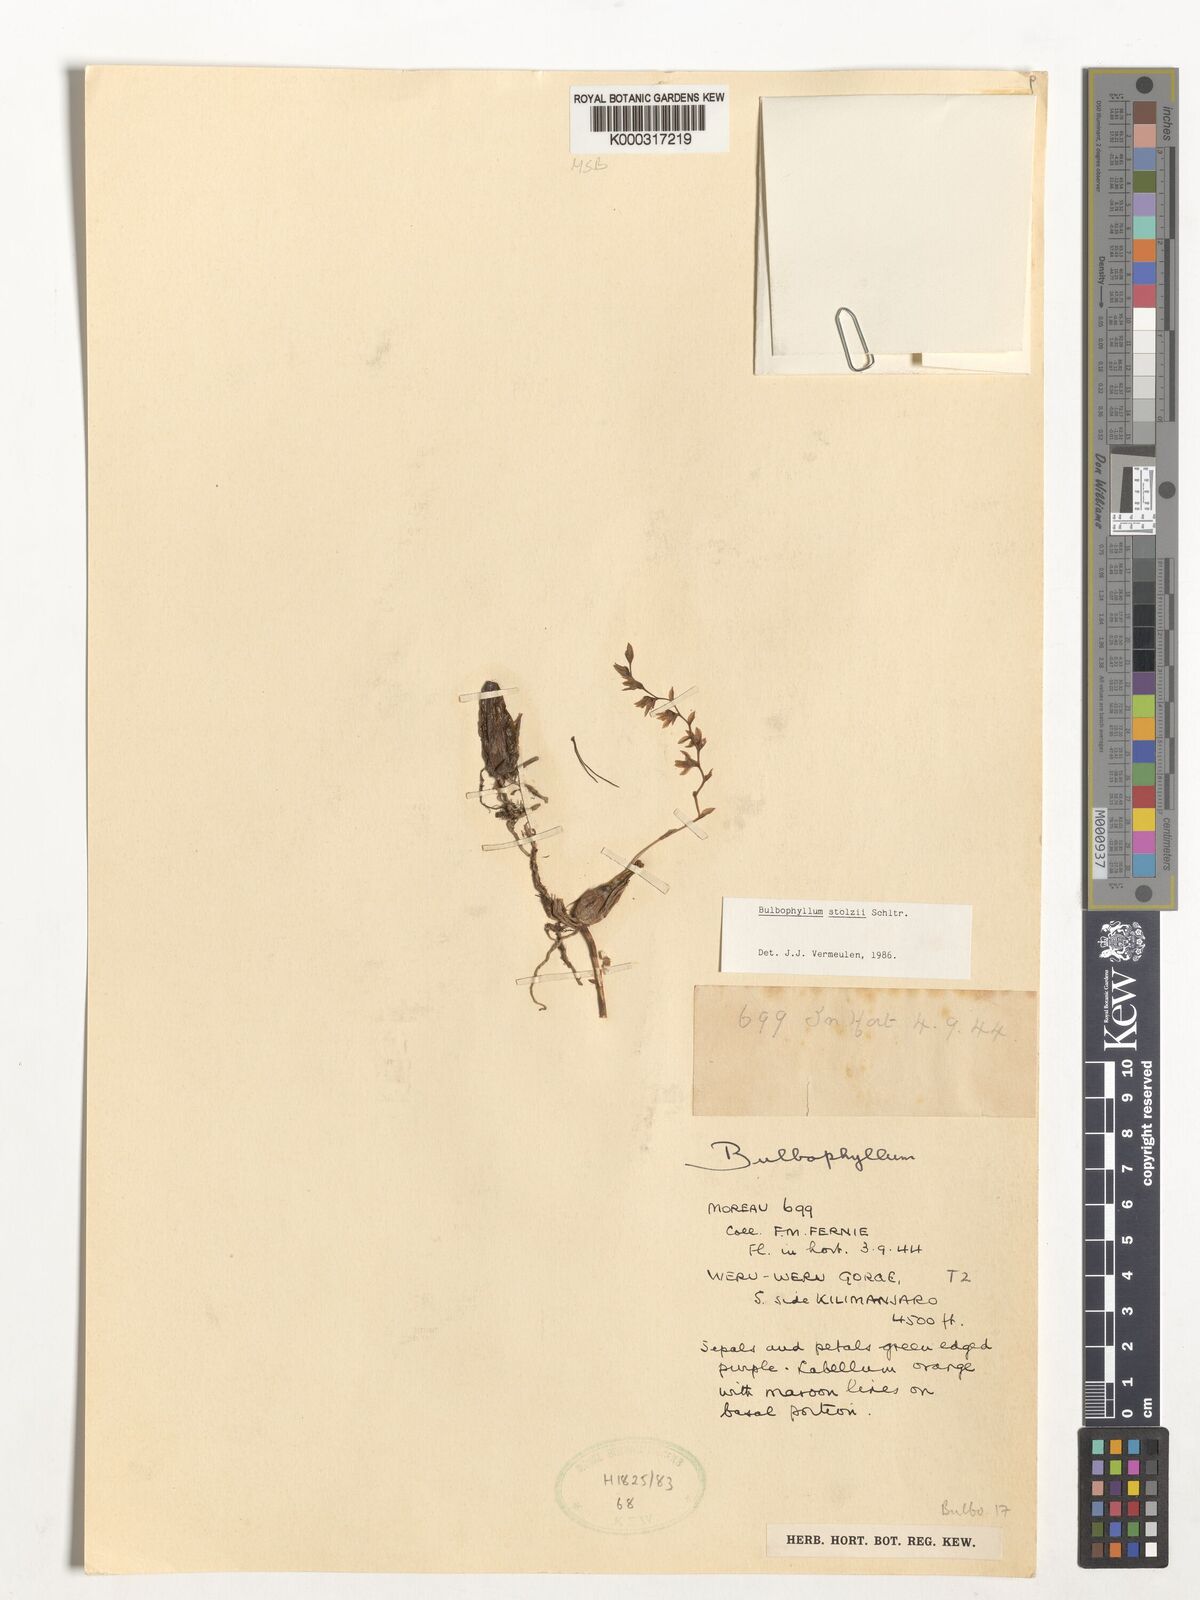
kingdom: Plantae
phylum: Tracheophyta
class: Liliopsida
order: Asparagales
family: Orchidaceae
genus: Bulbophyllum
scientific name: Bulbophyllum stolzii
